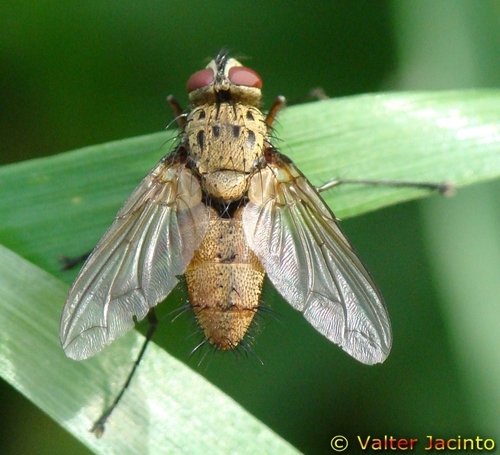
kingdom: Animalia
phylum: Arthropoda
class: Insecta
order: Diptera
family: Tachinidae
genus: Dexia
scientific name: Dexia rustica
